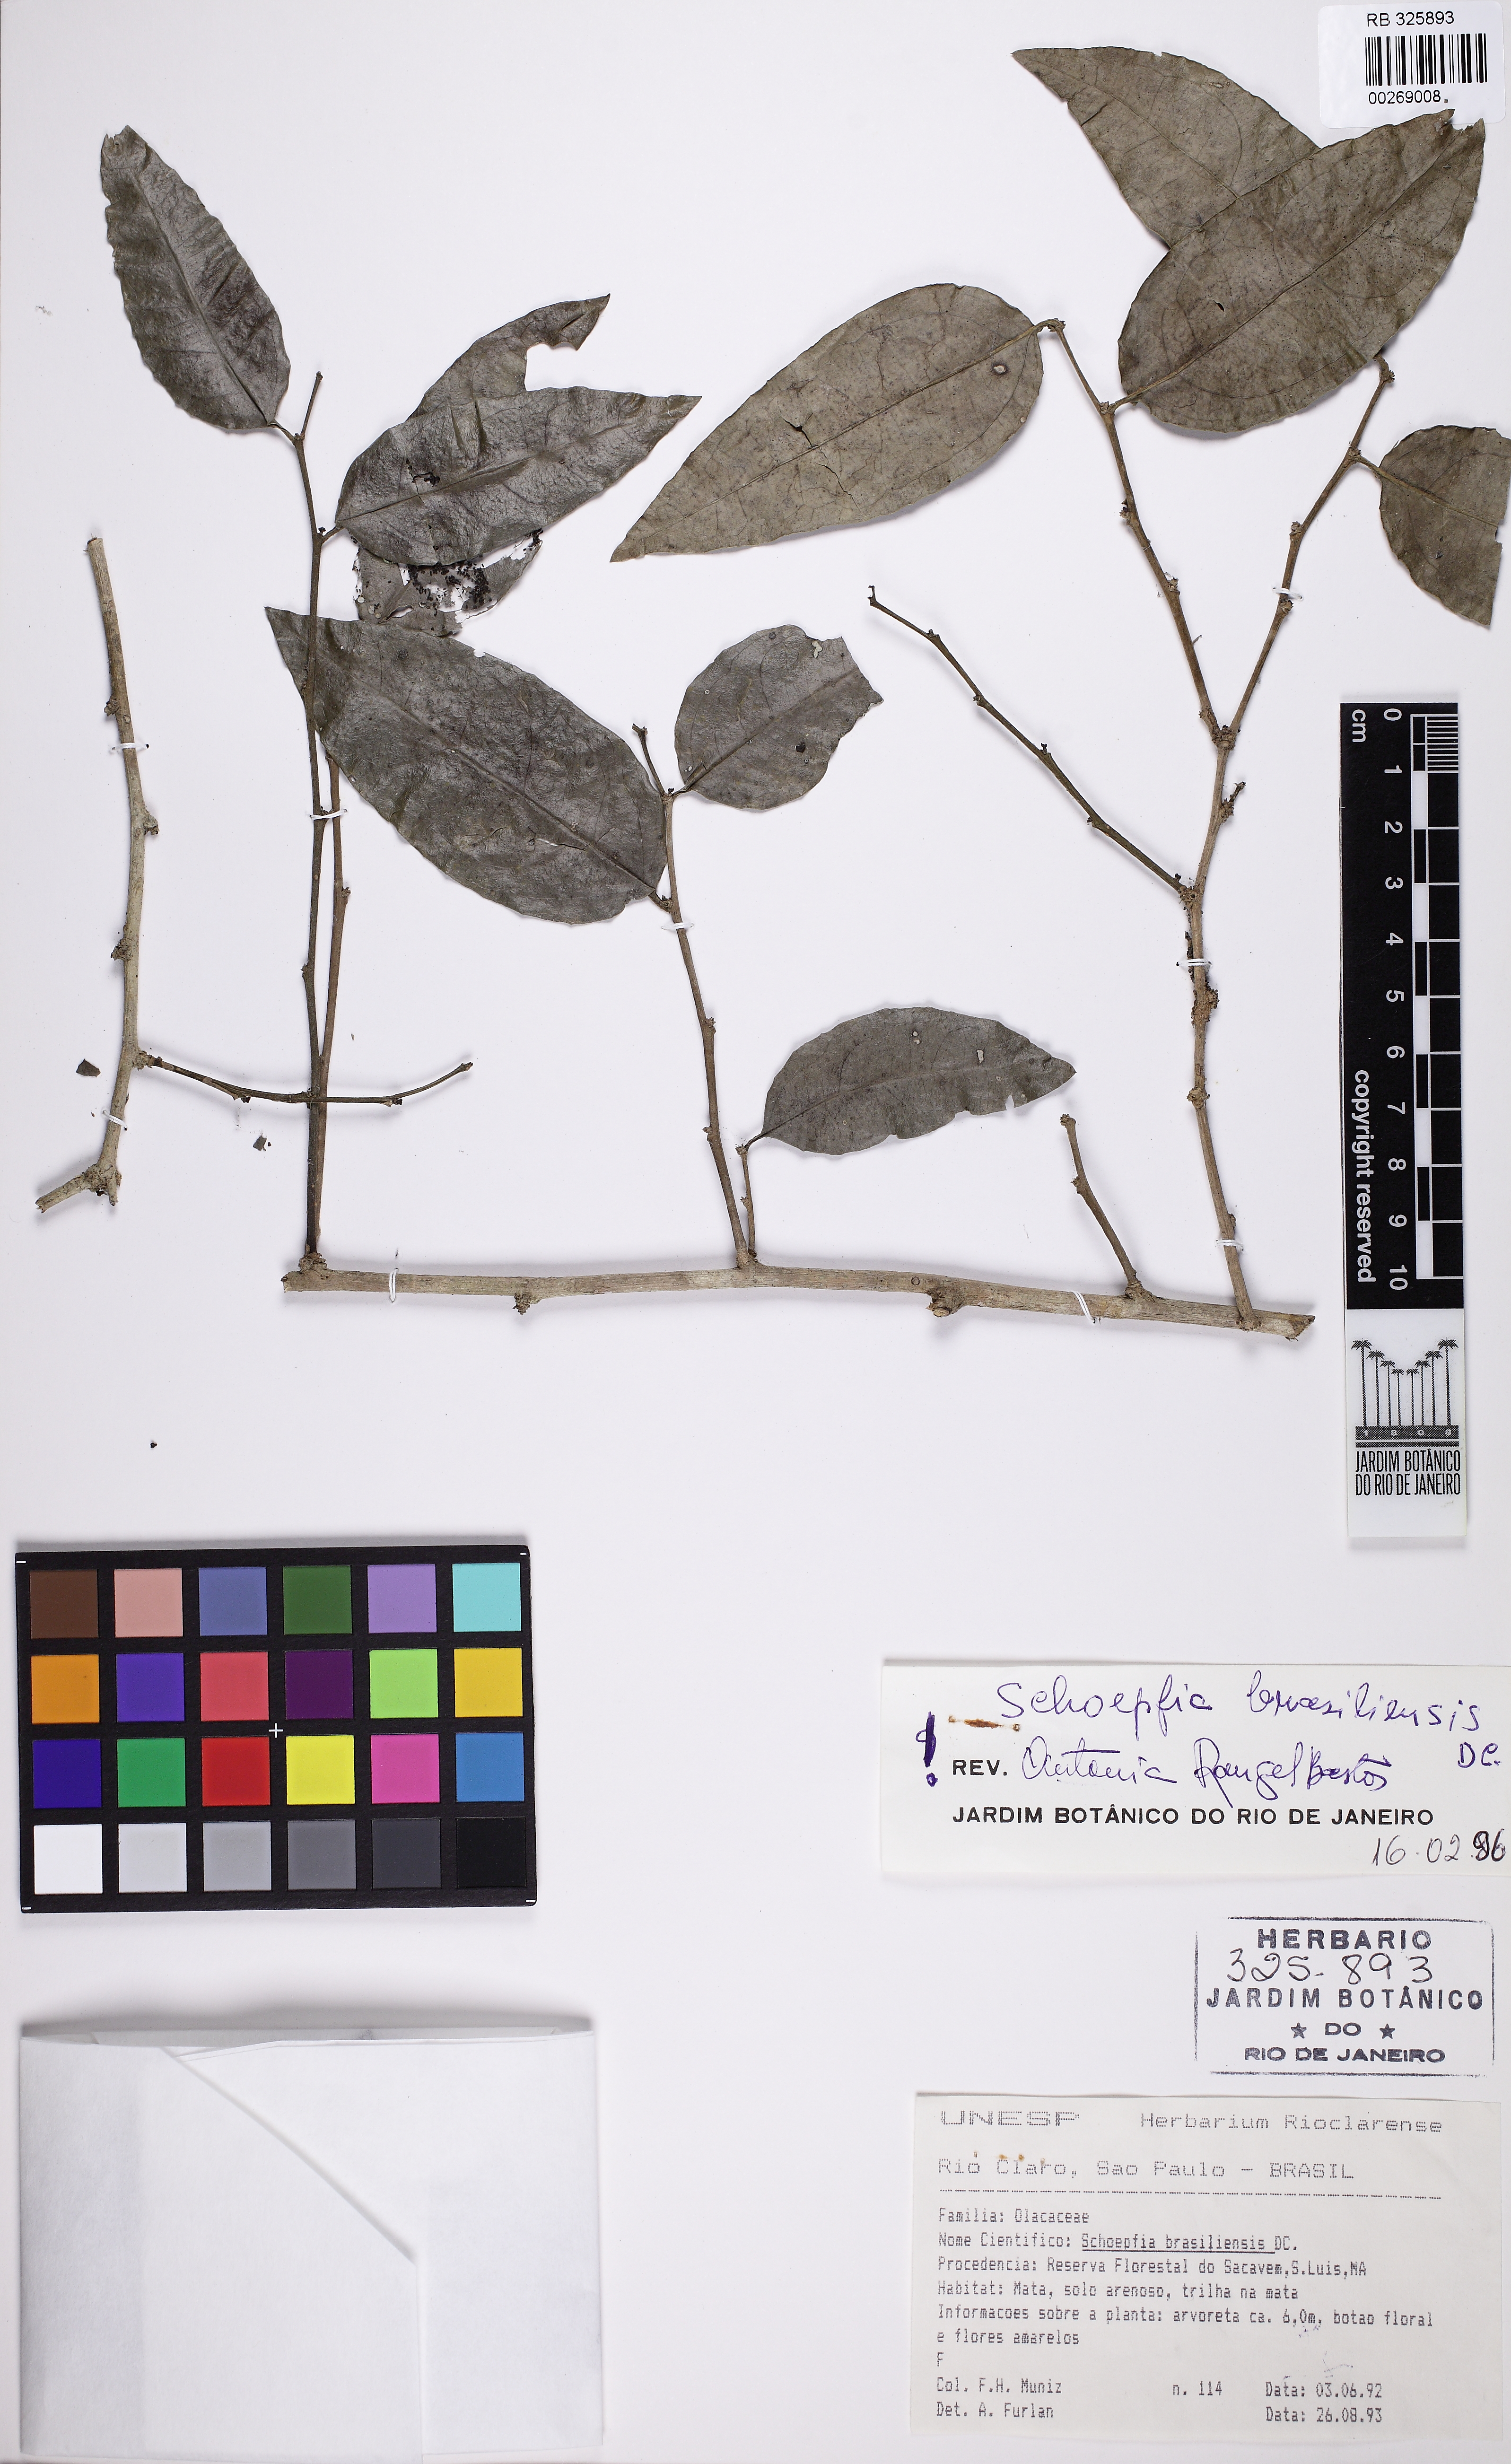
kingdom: Plantae
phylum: Tracheophyta
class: Magnoliopsida
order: Santalales
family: Schoepfiaceae
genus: Schoepfia
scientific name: Schoepfia brasiliensis
